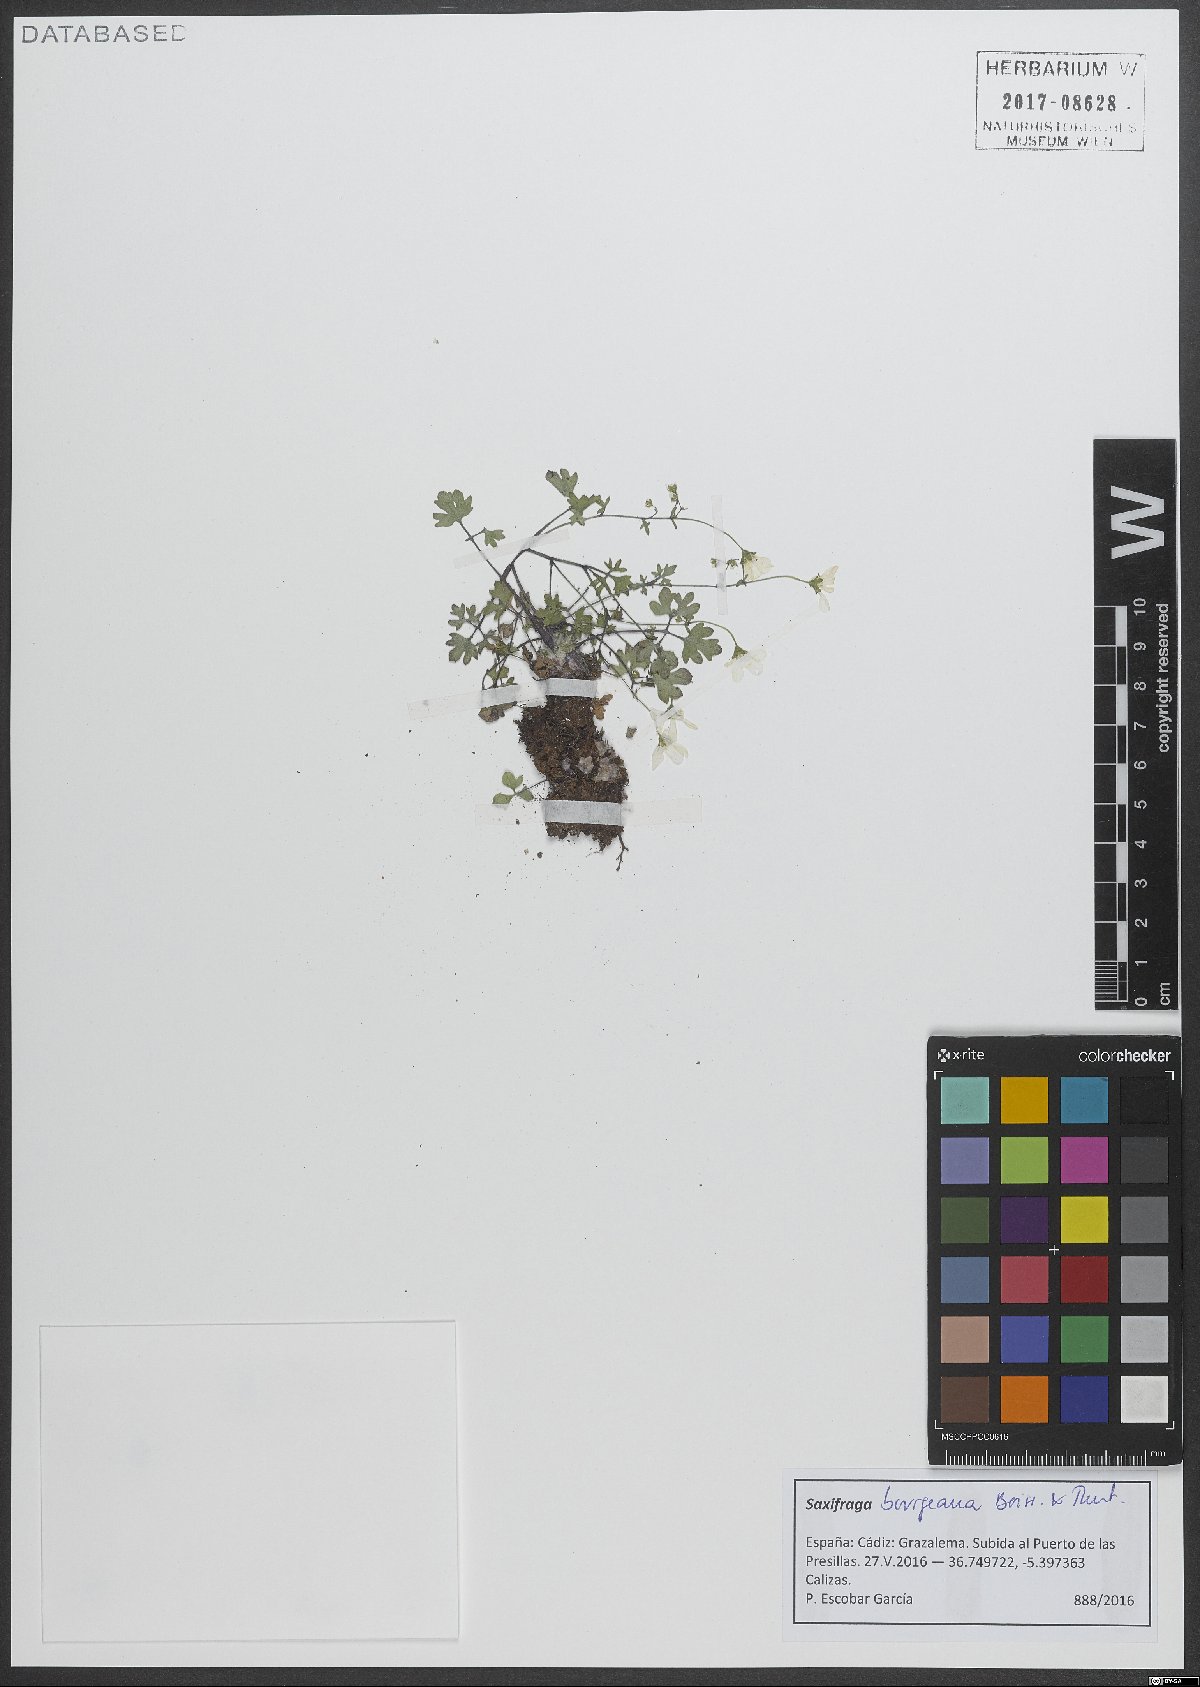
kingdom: Plantae
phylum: Tracheophyta
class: Magnoliopsida
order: Saxifragales
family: Saxifragaceae
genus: Saxifraga
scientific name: Saxifraga bourgaeana
